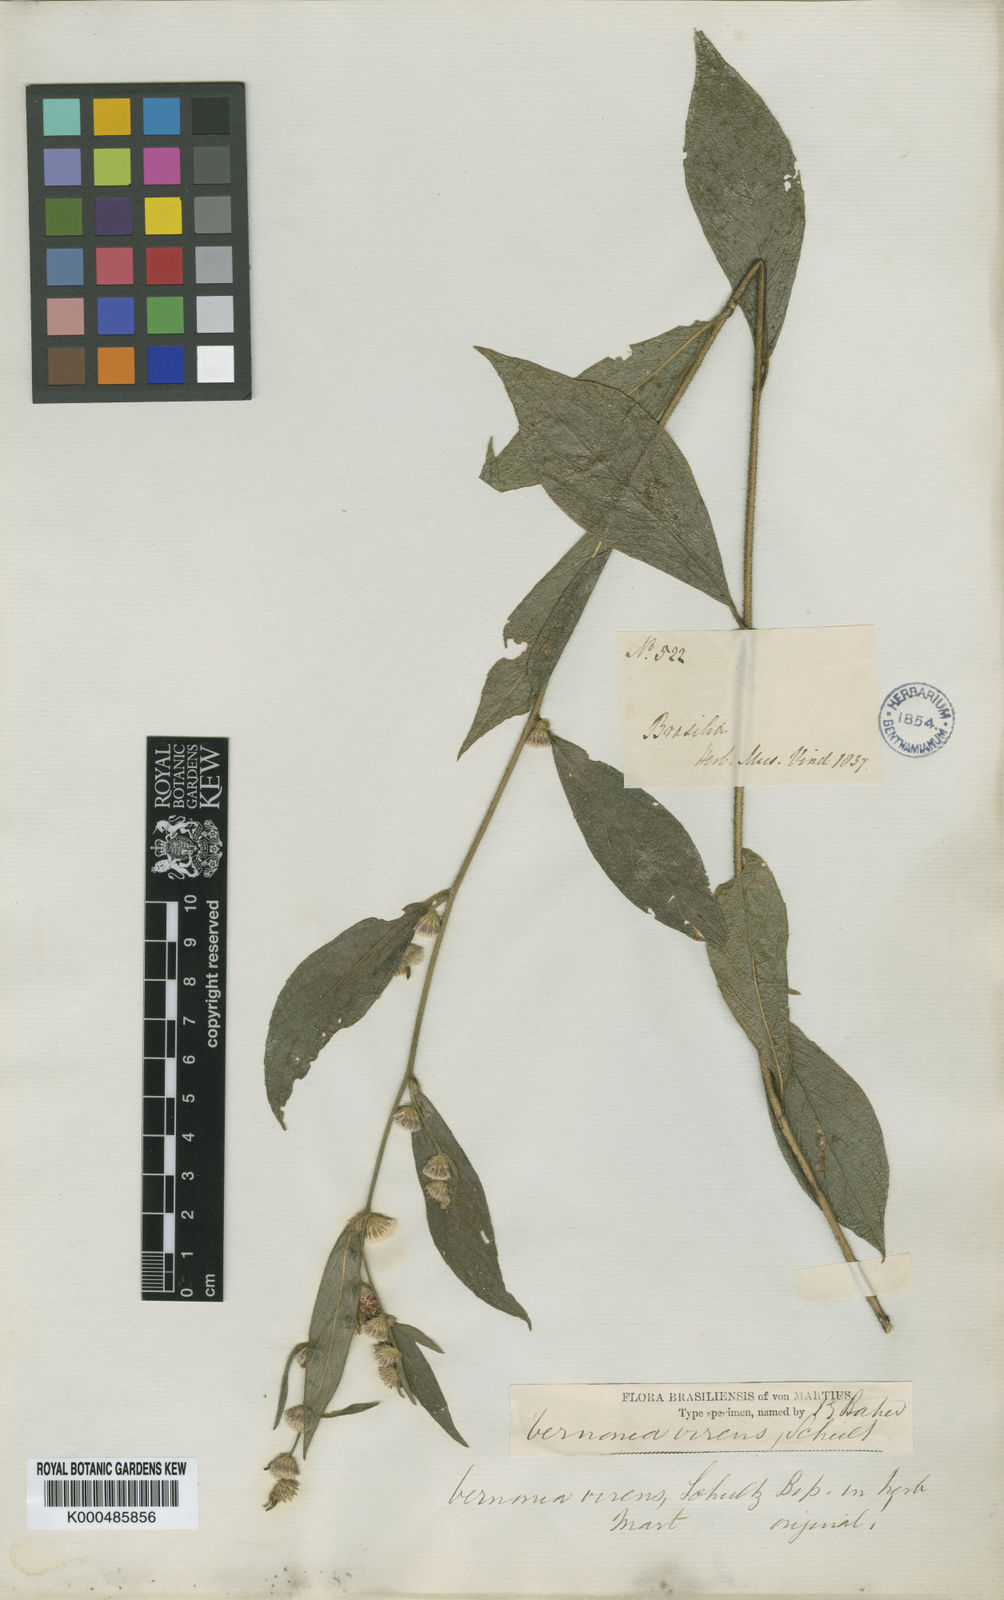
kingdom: Plantae
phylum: Tracheophyta
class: Magnoliopsida
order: Asterales
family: Asteraceae
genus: Lepidaploa
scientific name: Lepidaploa argyropappa
